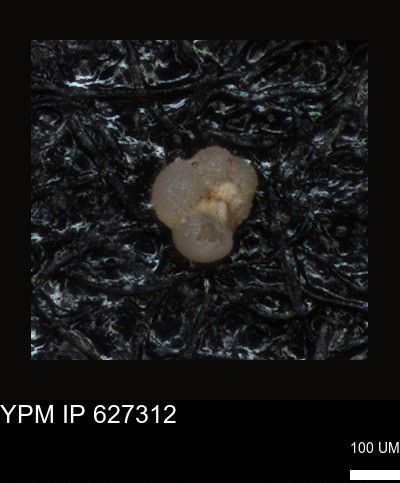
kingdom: Chromista
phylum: Foraminifera
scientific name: Foraminifera
